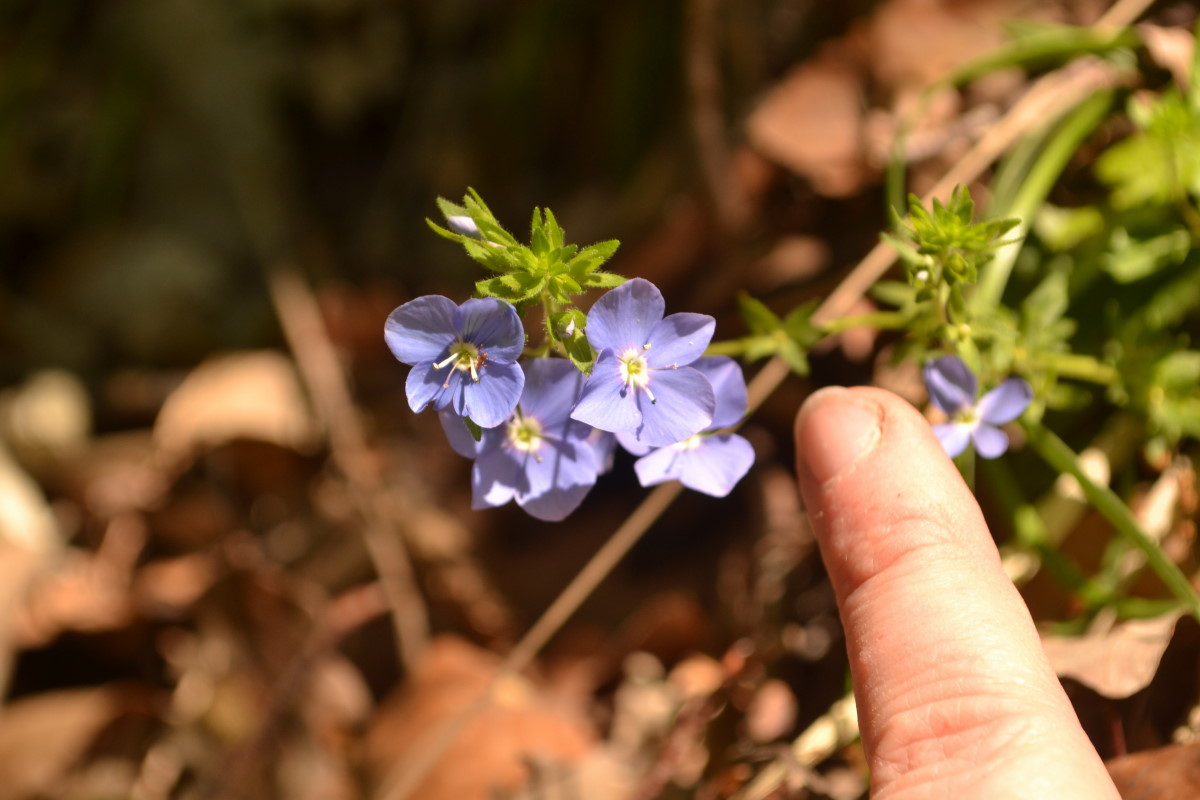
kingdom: Plantae
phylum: Tracheophyta
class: Magnoliopsida
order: Lamiales
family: Plantaginaceae
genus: Veronica
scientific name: Veronica
